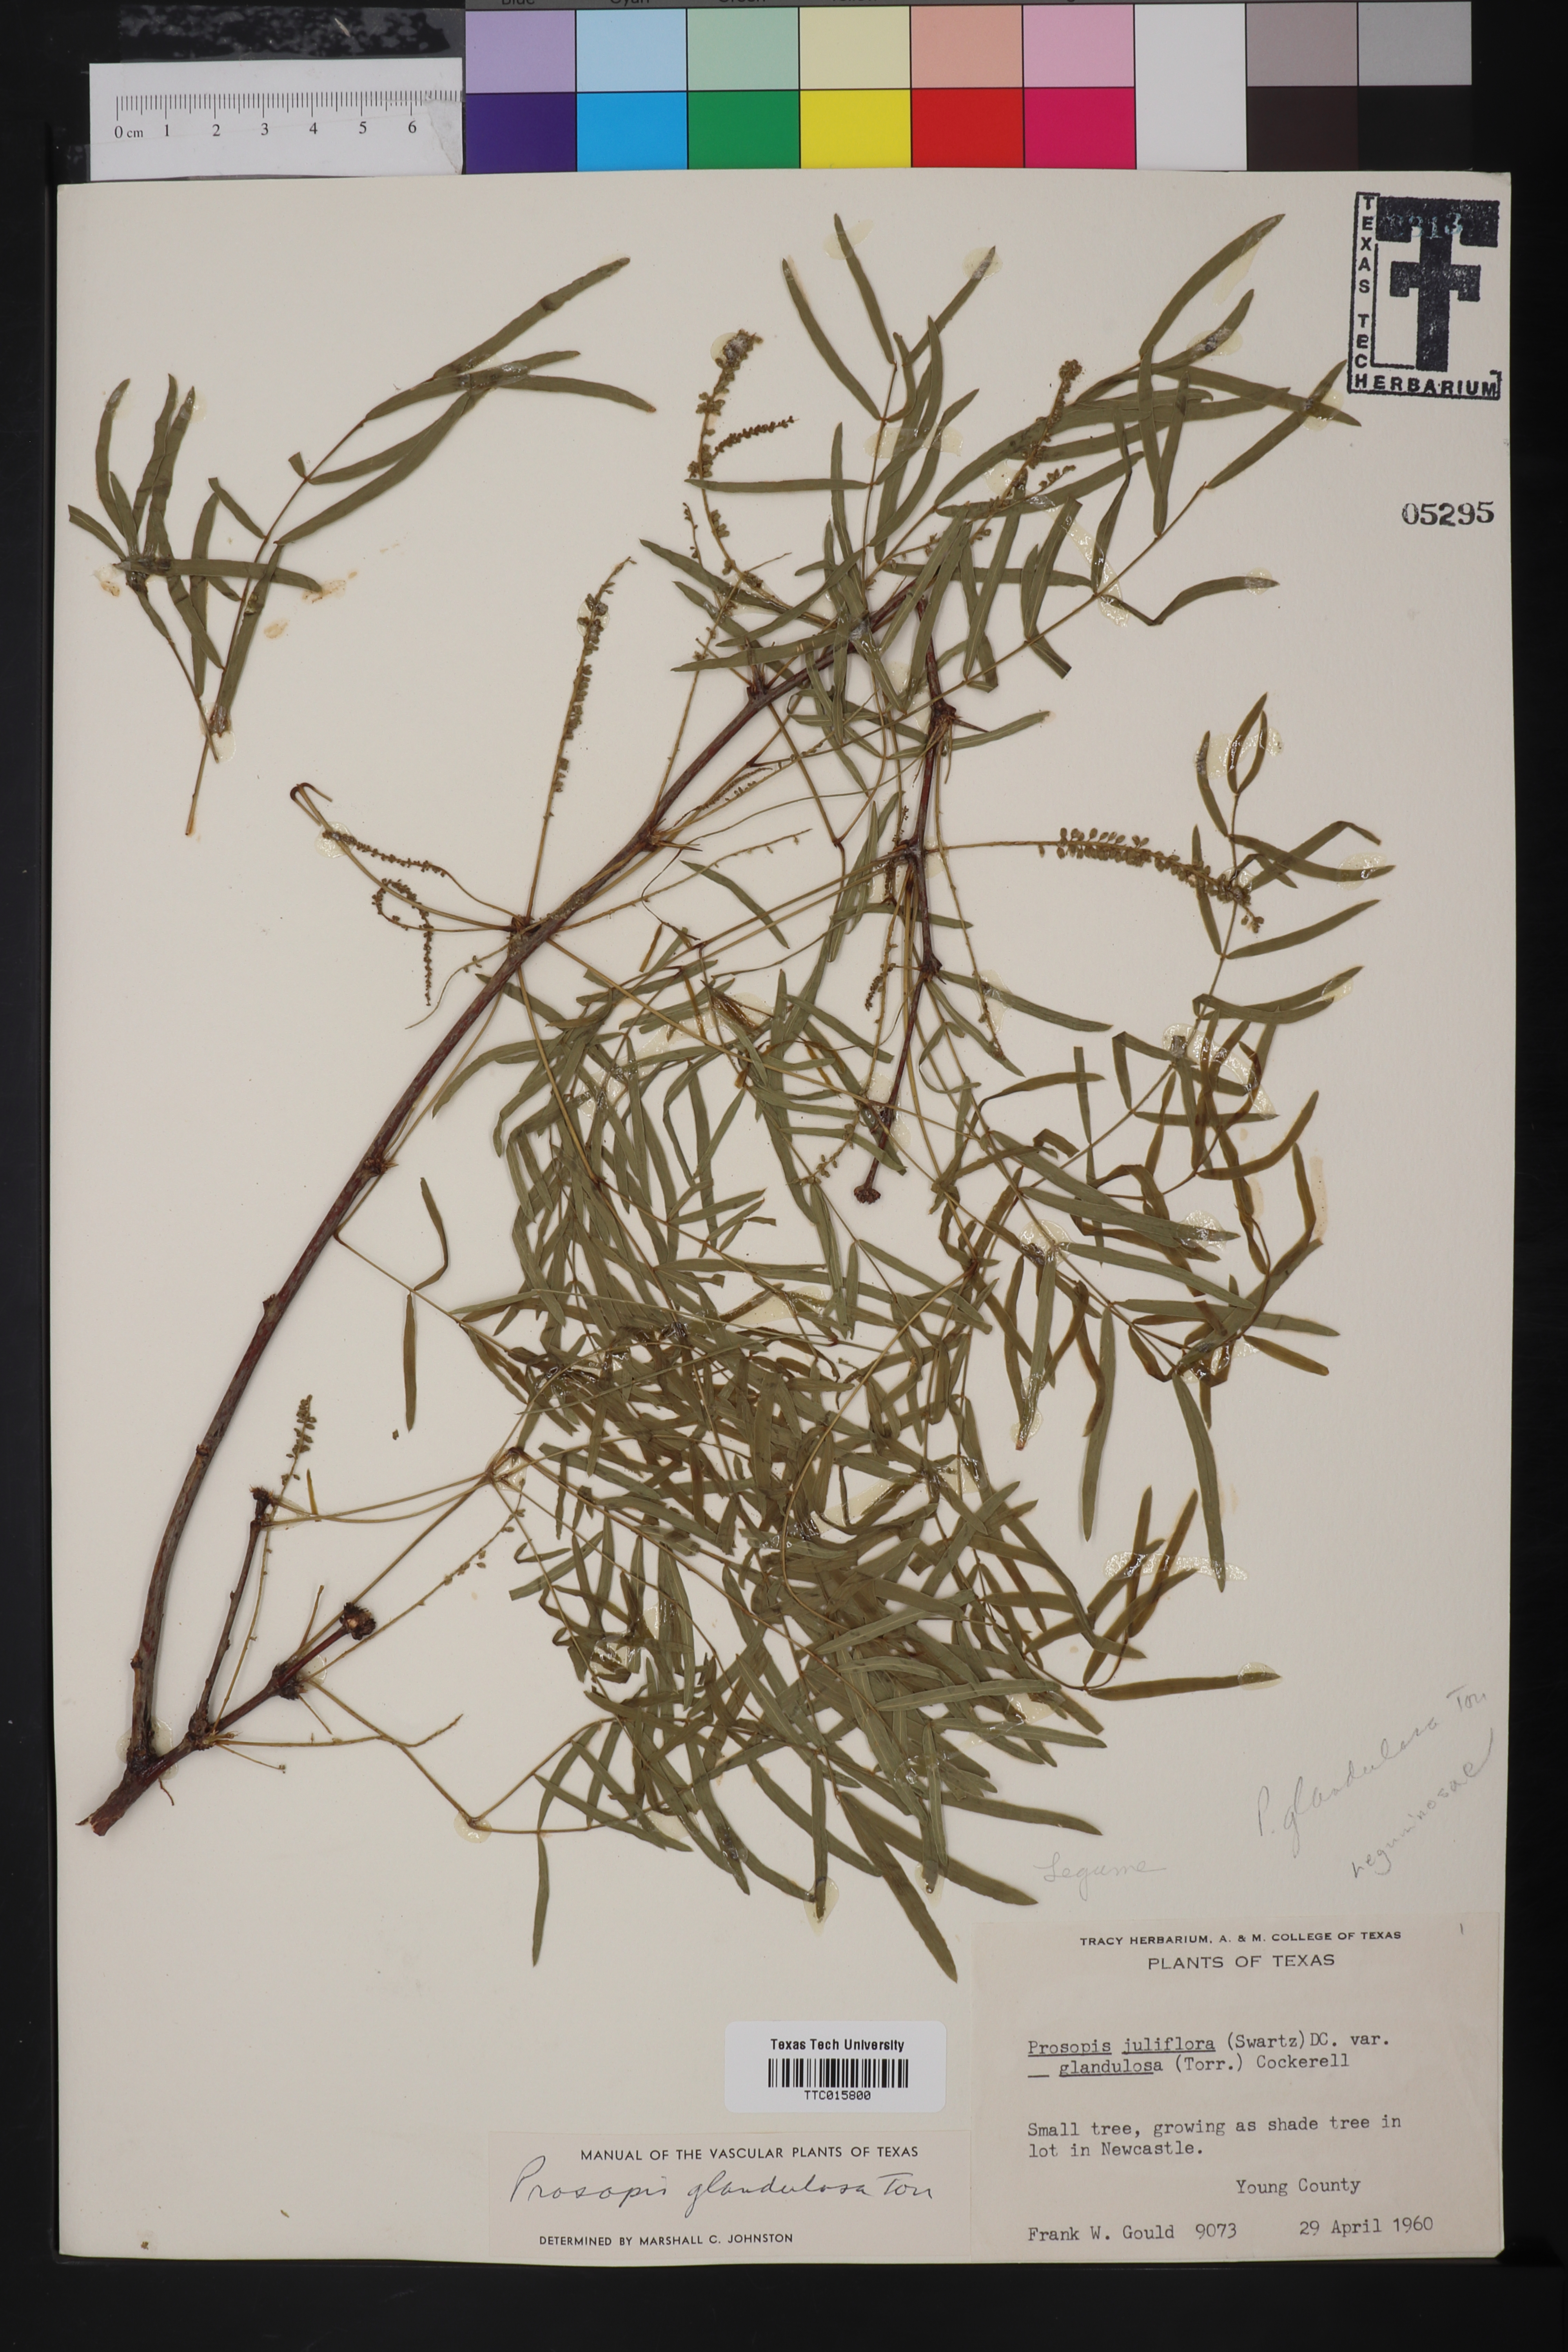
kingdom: Plantae
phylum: Tracheophyta
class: Magnoliopsida
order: Fabales
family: Fabaceae
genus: Prosopis
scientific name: Prosopis glandulosa
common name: Honey mesquite
